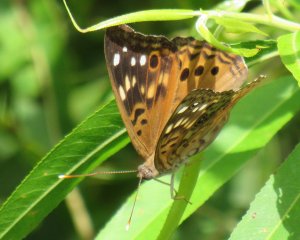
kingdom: Animalia
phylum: Arthropoda
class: Insecta
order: Lepidoptera
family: Nymphalidae
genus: Asterocampa
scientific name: Asterocampa celtis
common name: Hackberry Emperor
